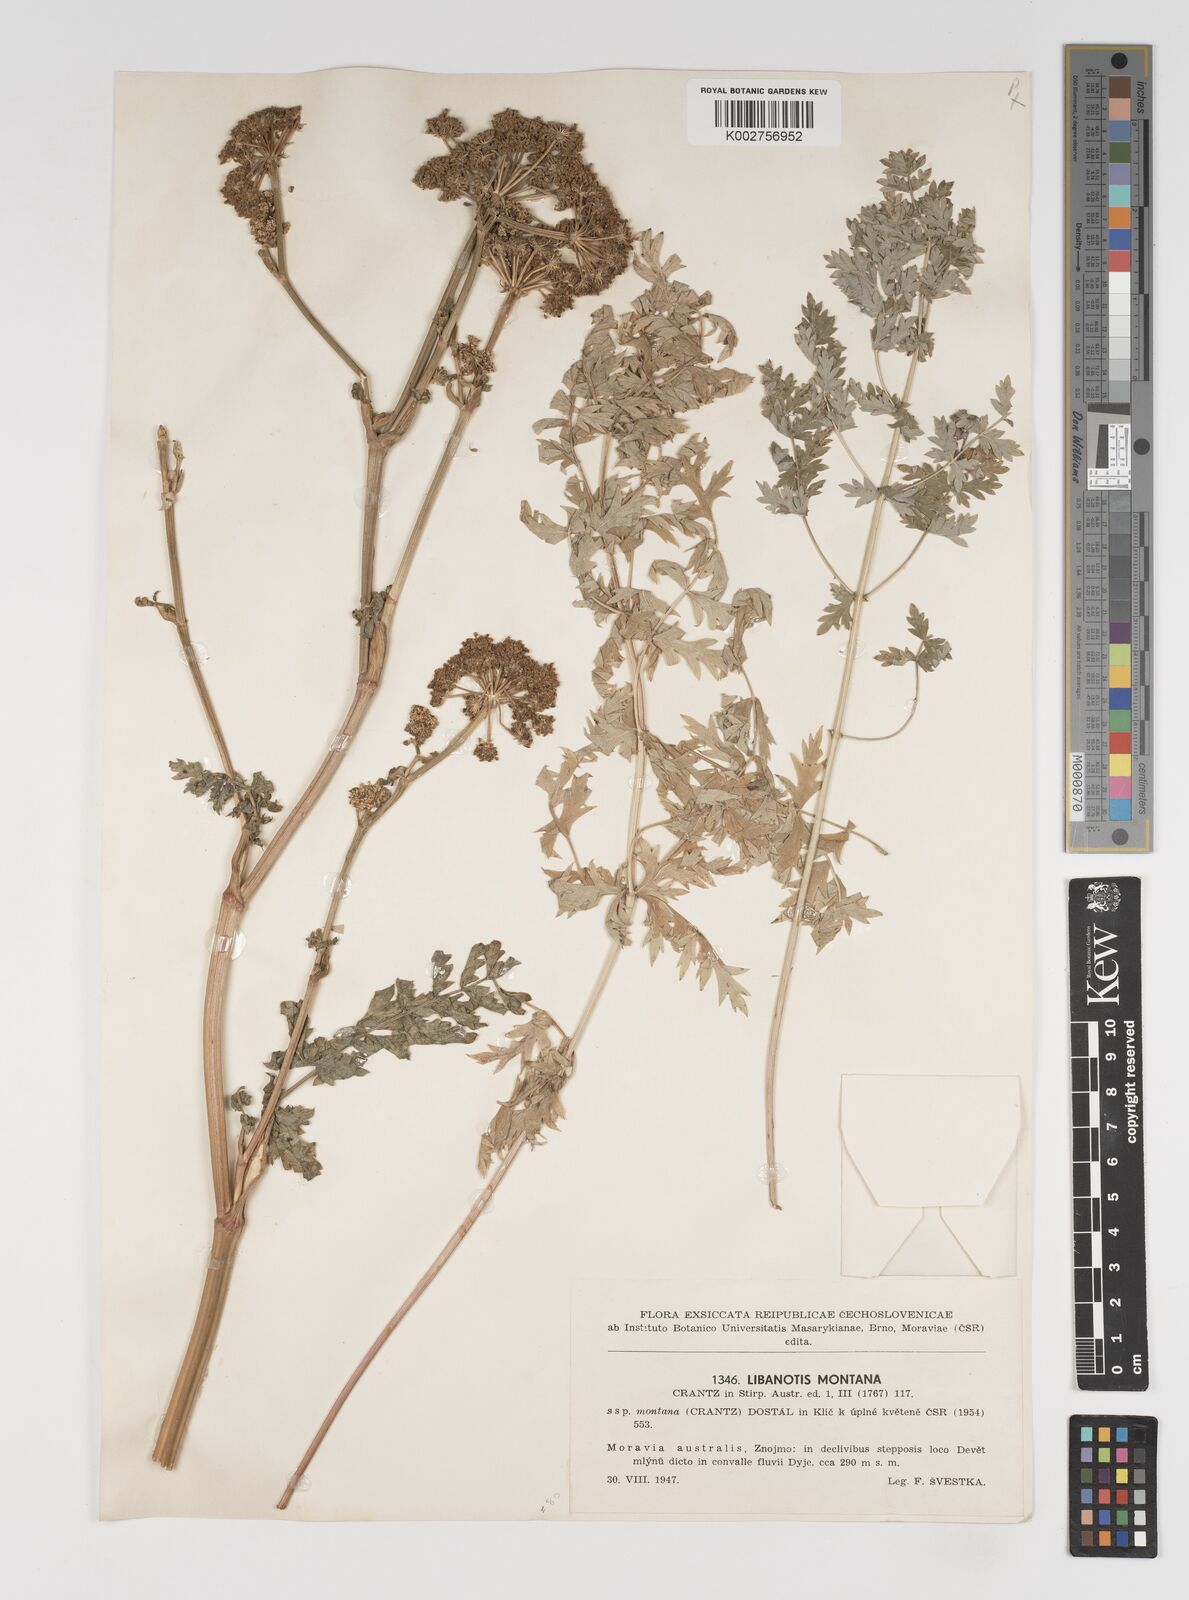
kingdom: Plantae
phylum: Tracheophyta
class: Magnoliopsida
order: Apiales
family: Apiaceae
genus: Seseli
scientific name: Seseli libanotis
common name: Mooncarrot
